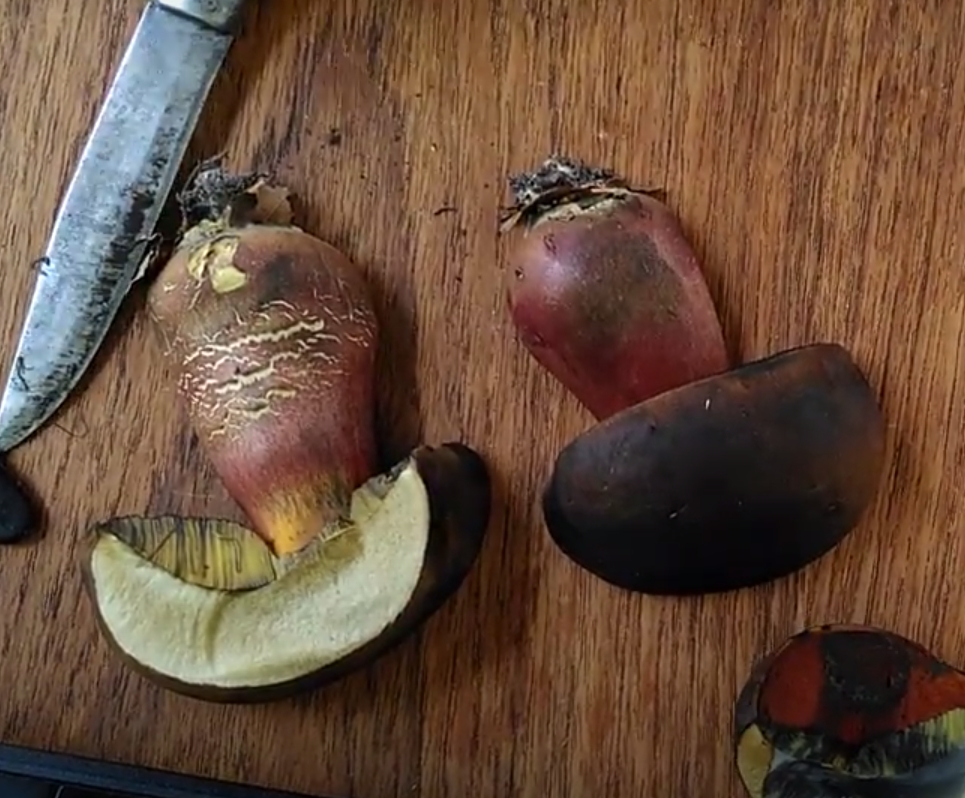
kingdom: Fungi
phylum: Basidiomycota
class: Agaricomycetes
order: Boletales
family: Boletaceae
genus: Neoboletus
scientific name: Neoboletus erythropus
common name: punktstokket indigorørhat
